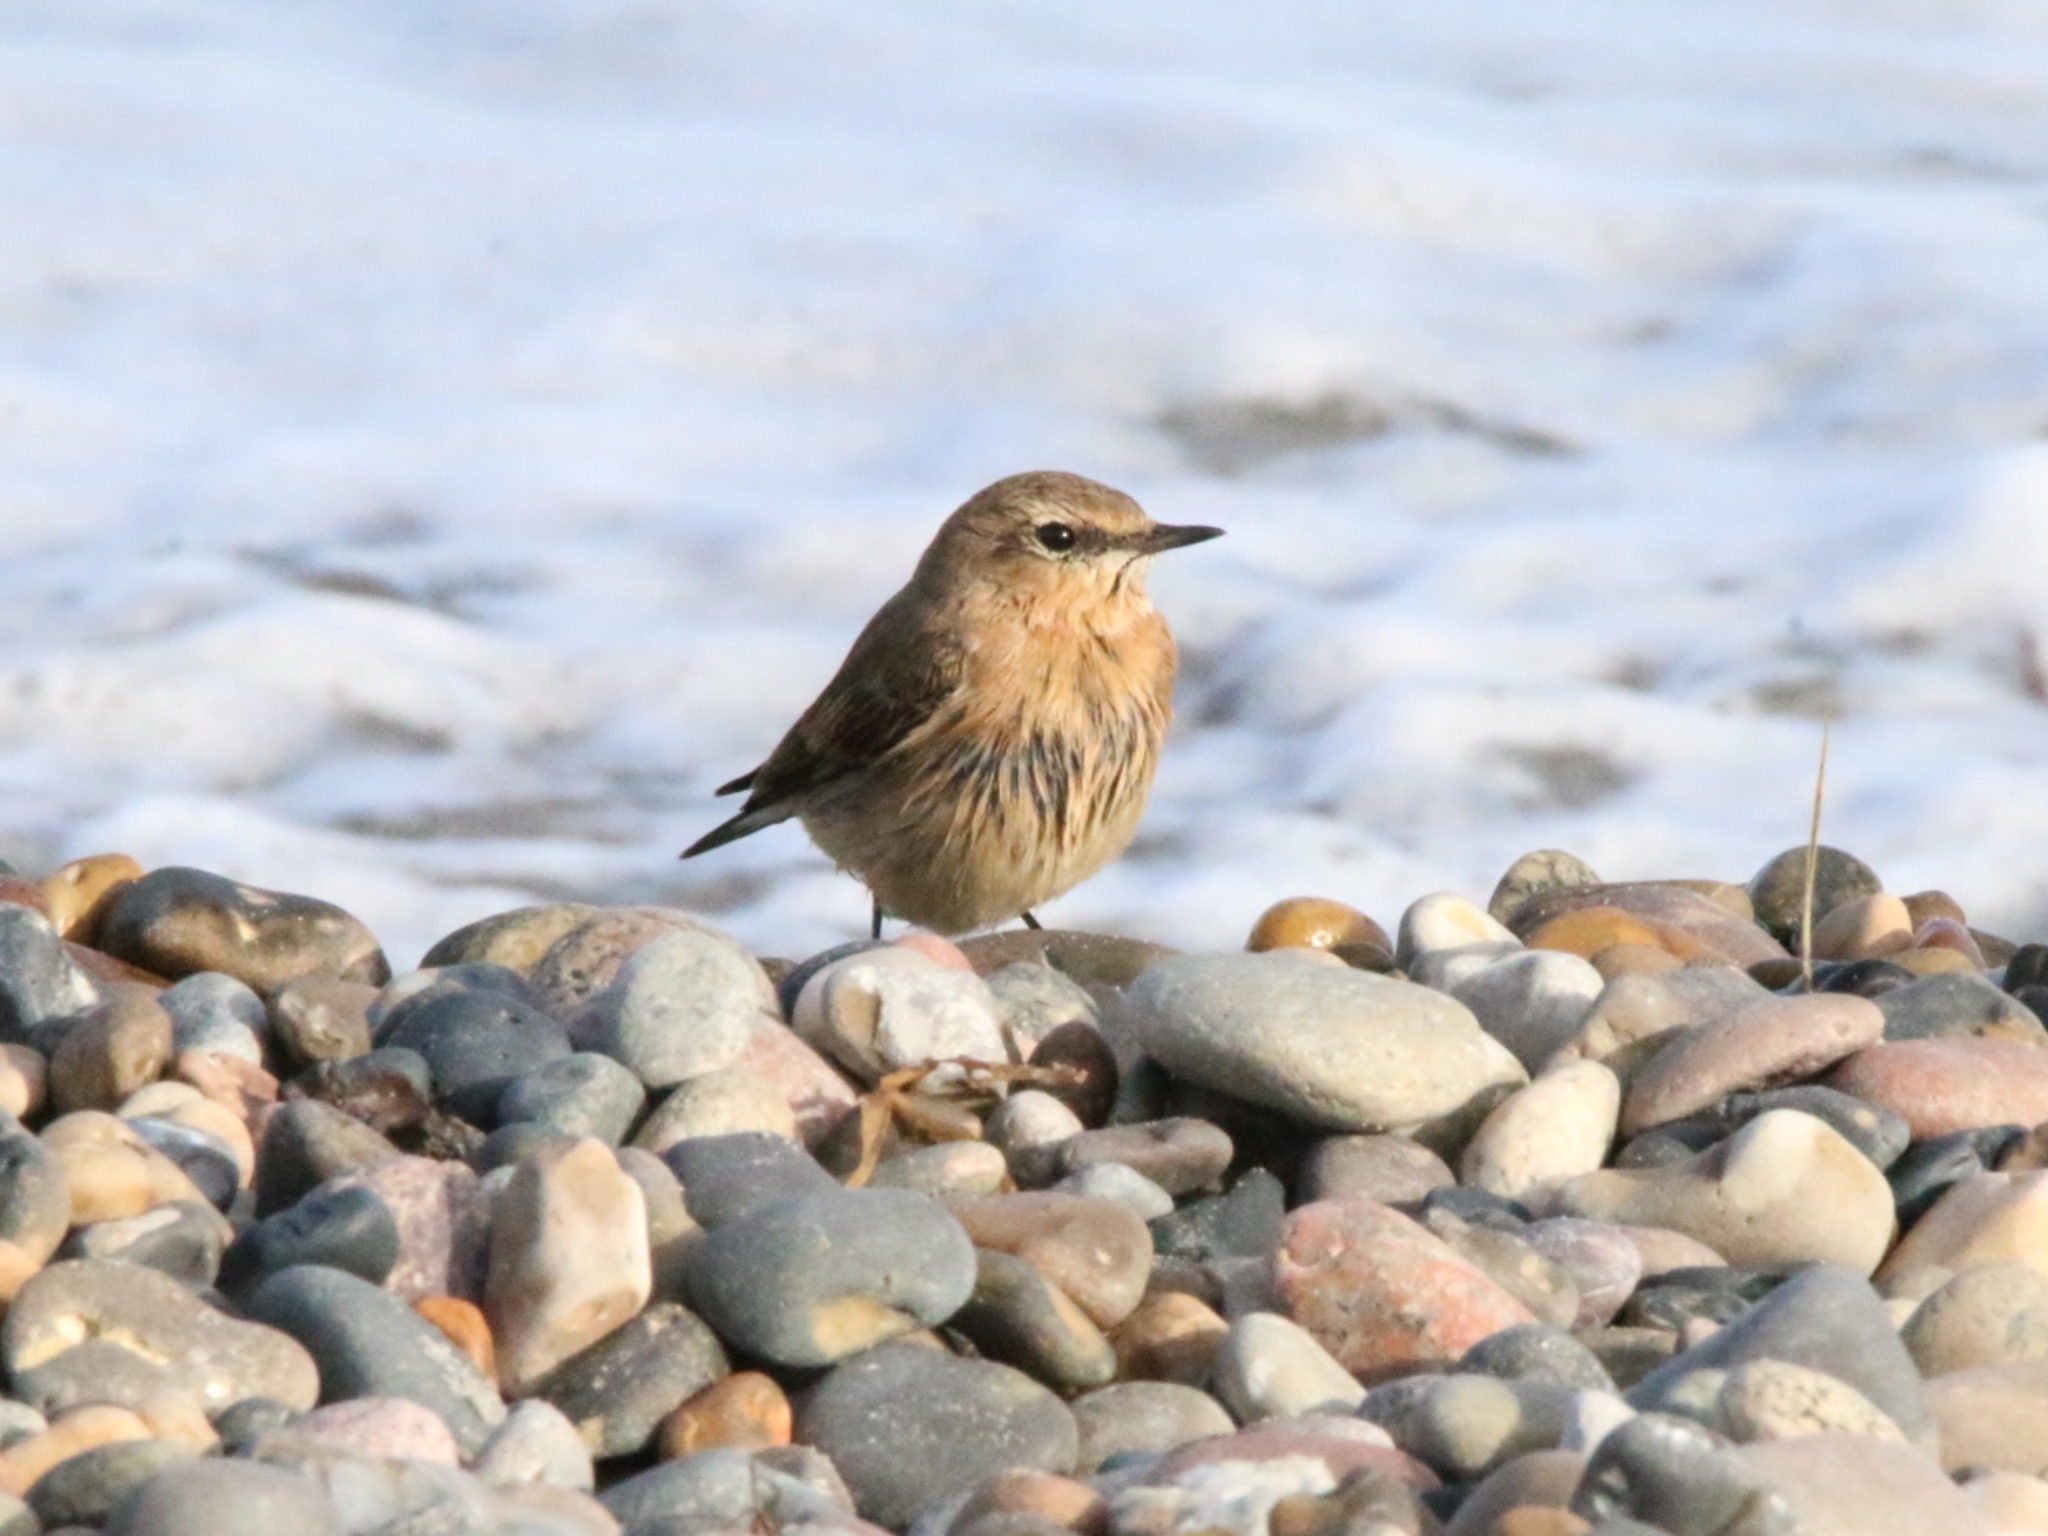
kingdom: Animalia
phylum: Chordata
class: Aves
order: Passeriformes
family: Muscicapidae
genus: Oenanthe
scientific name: Oenanthe oenanthe
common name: Stenpikker
